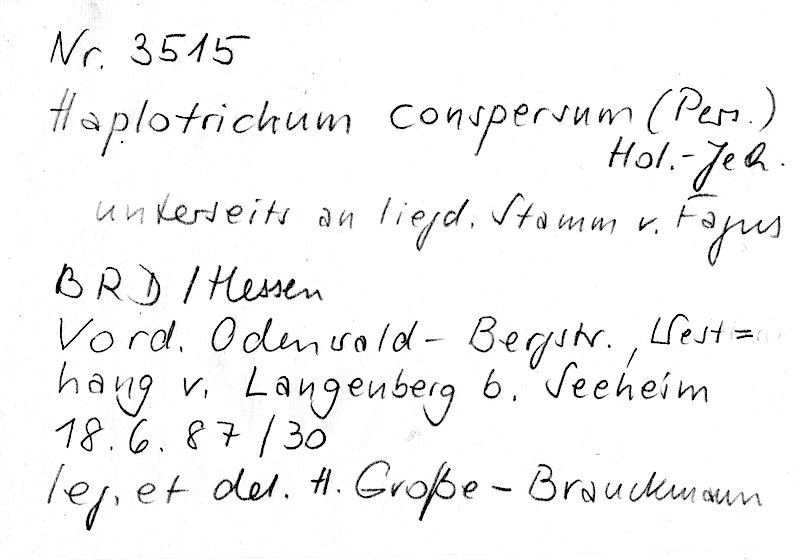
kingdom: Plantae
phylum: Tracheophyta
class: Magnoliopsida
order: Fagales
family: Fagaceae
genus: Fagus
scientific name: Fagus sylvatica
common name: Beech
